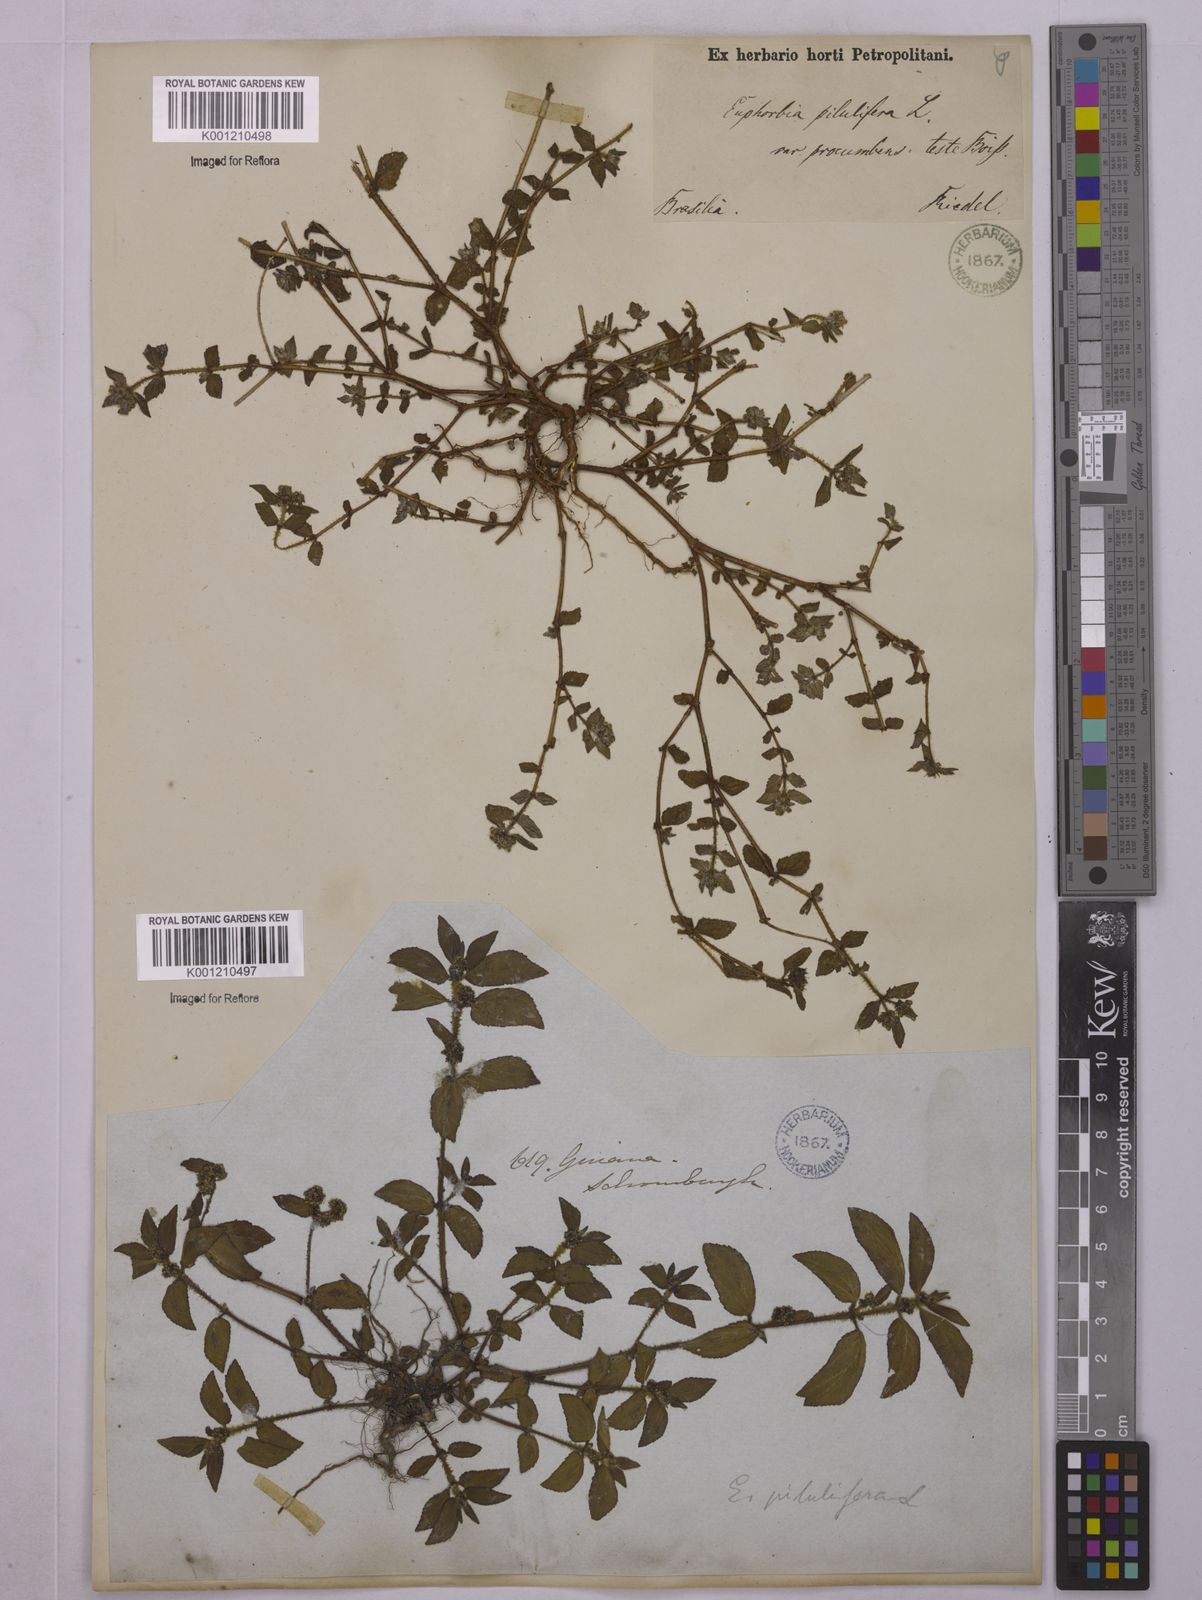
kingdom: Plantae
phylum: Tracheophyta
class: Magnoliopsida
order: Malpighiales
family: Euphorbiaceae
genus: Euphorbia
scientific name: Euphorbia hirta
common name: Pillpod sandmat
